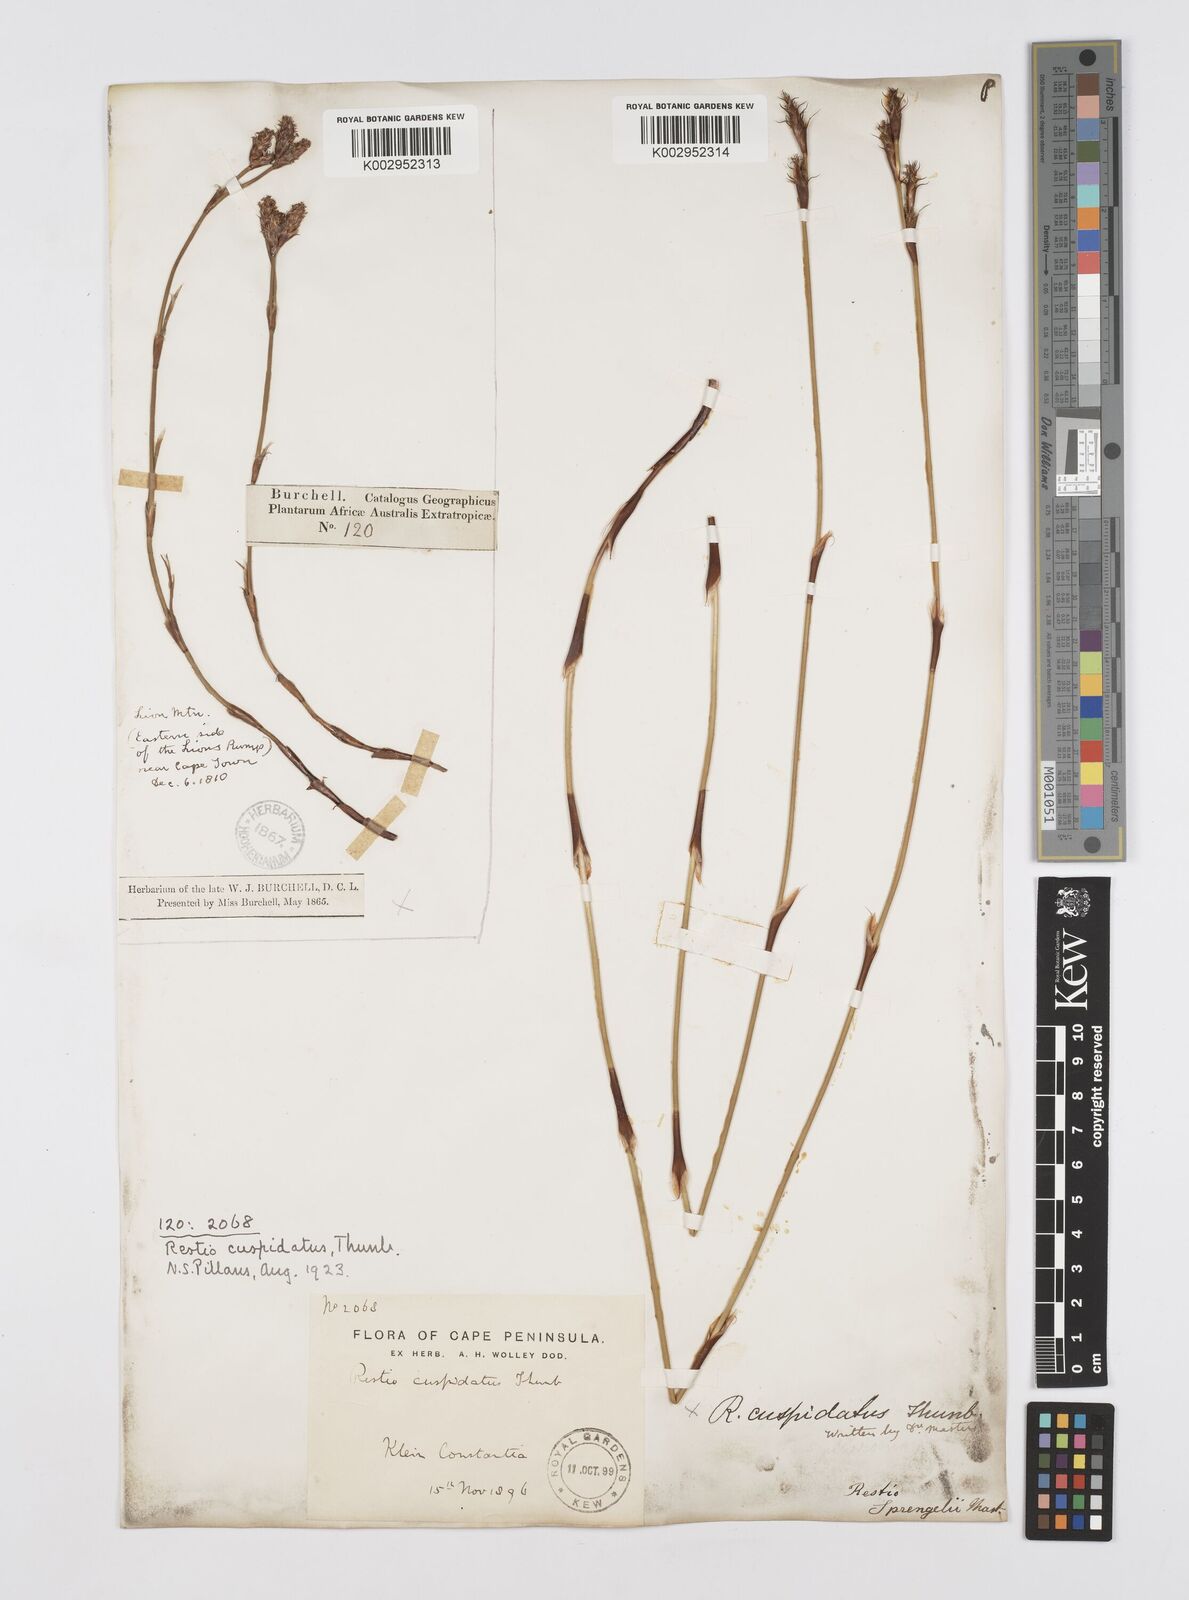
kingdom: Plantae
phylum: Tracheophyta
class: Liliopsida
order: Poales
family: Restionaceae
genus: Restio
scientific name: Restio capensis
